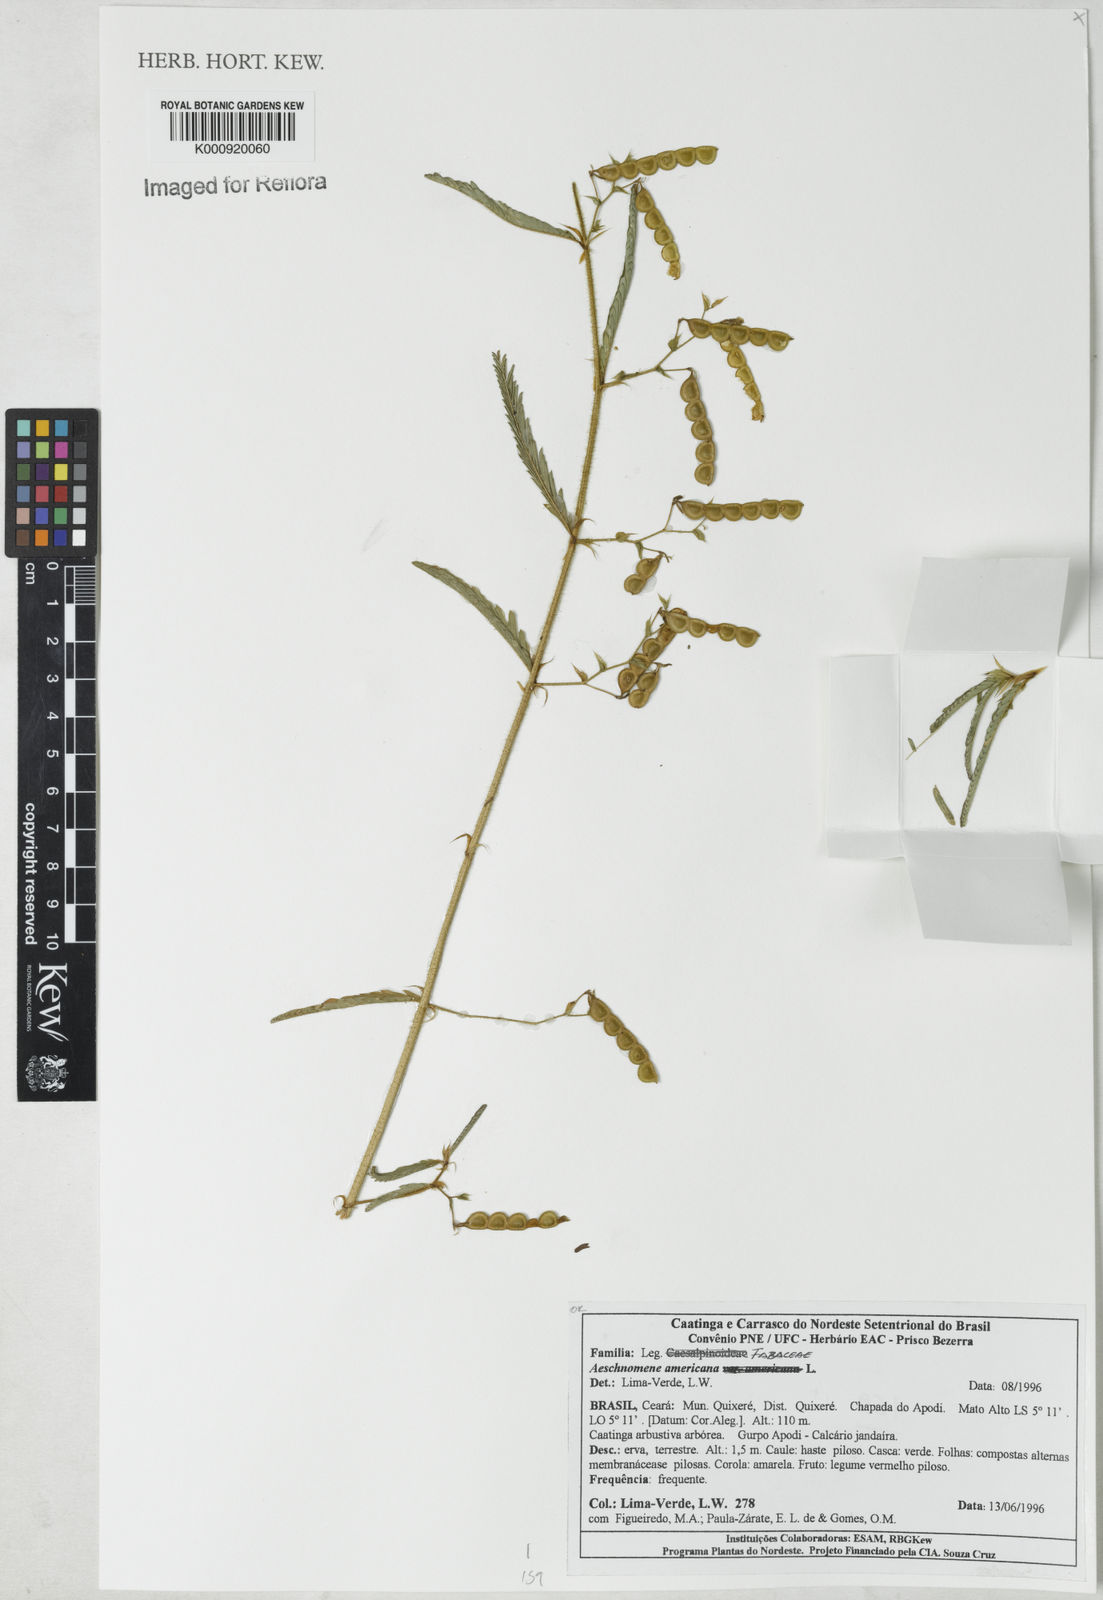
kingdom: Plantae
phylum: Tracheophyta
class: Magnoliopsida
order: Fabales
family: Fabaceae
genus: Aeschynomene
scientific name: Aeschynomene americana
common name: Joint-vetch
